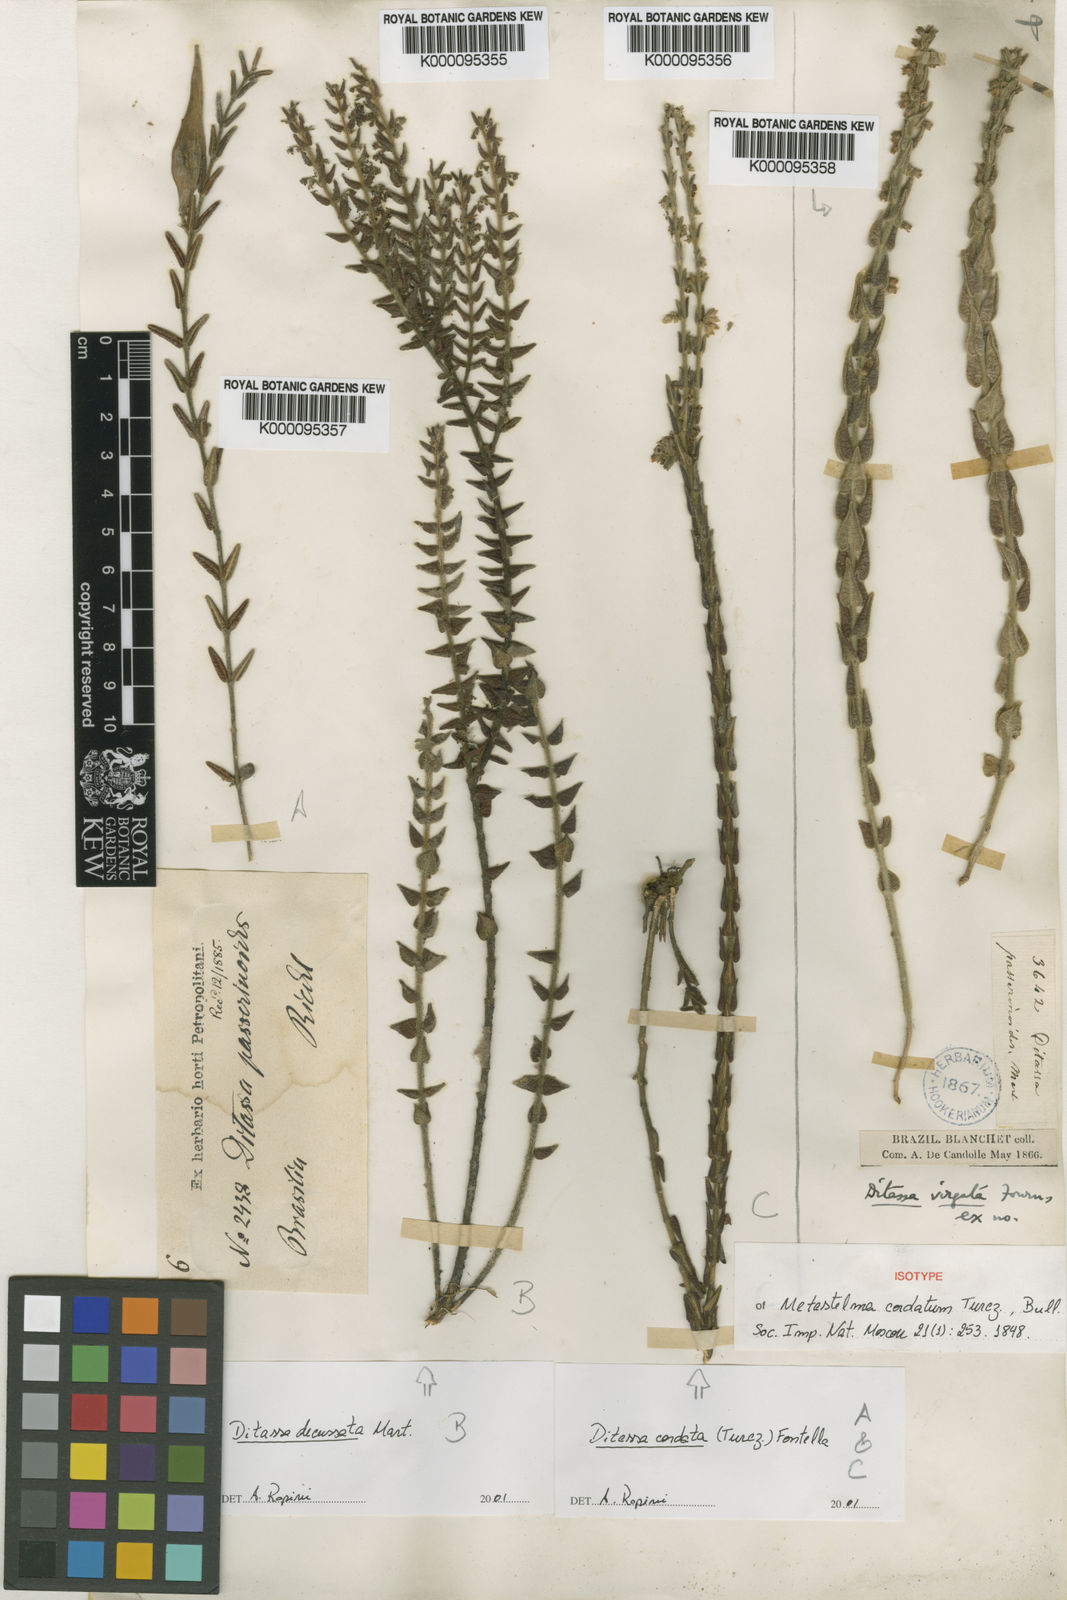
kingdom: Plantae
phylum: Tracheophyta
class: Magnoliopsida
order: Gentianales
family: Apocynaceae
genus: Minaria
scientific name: Minaria cordata
